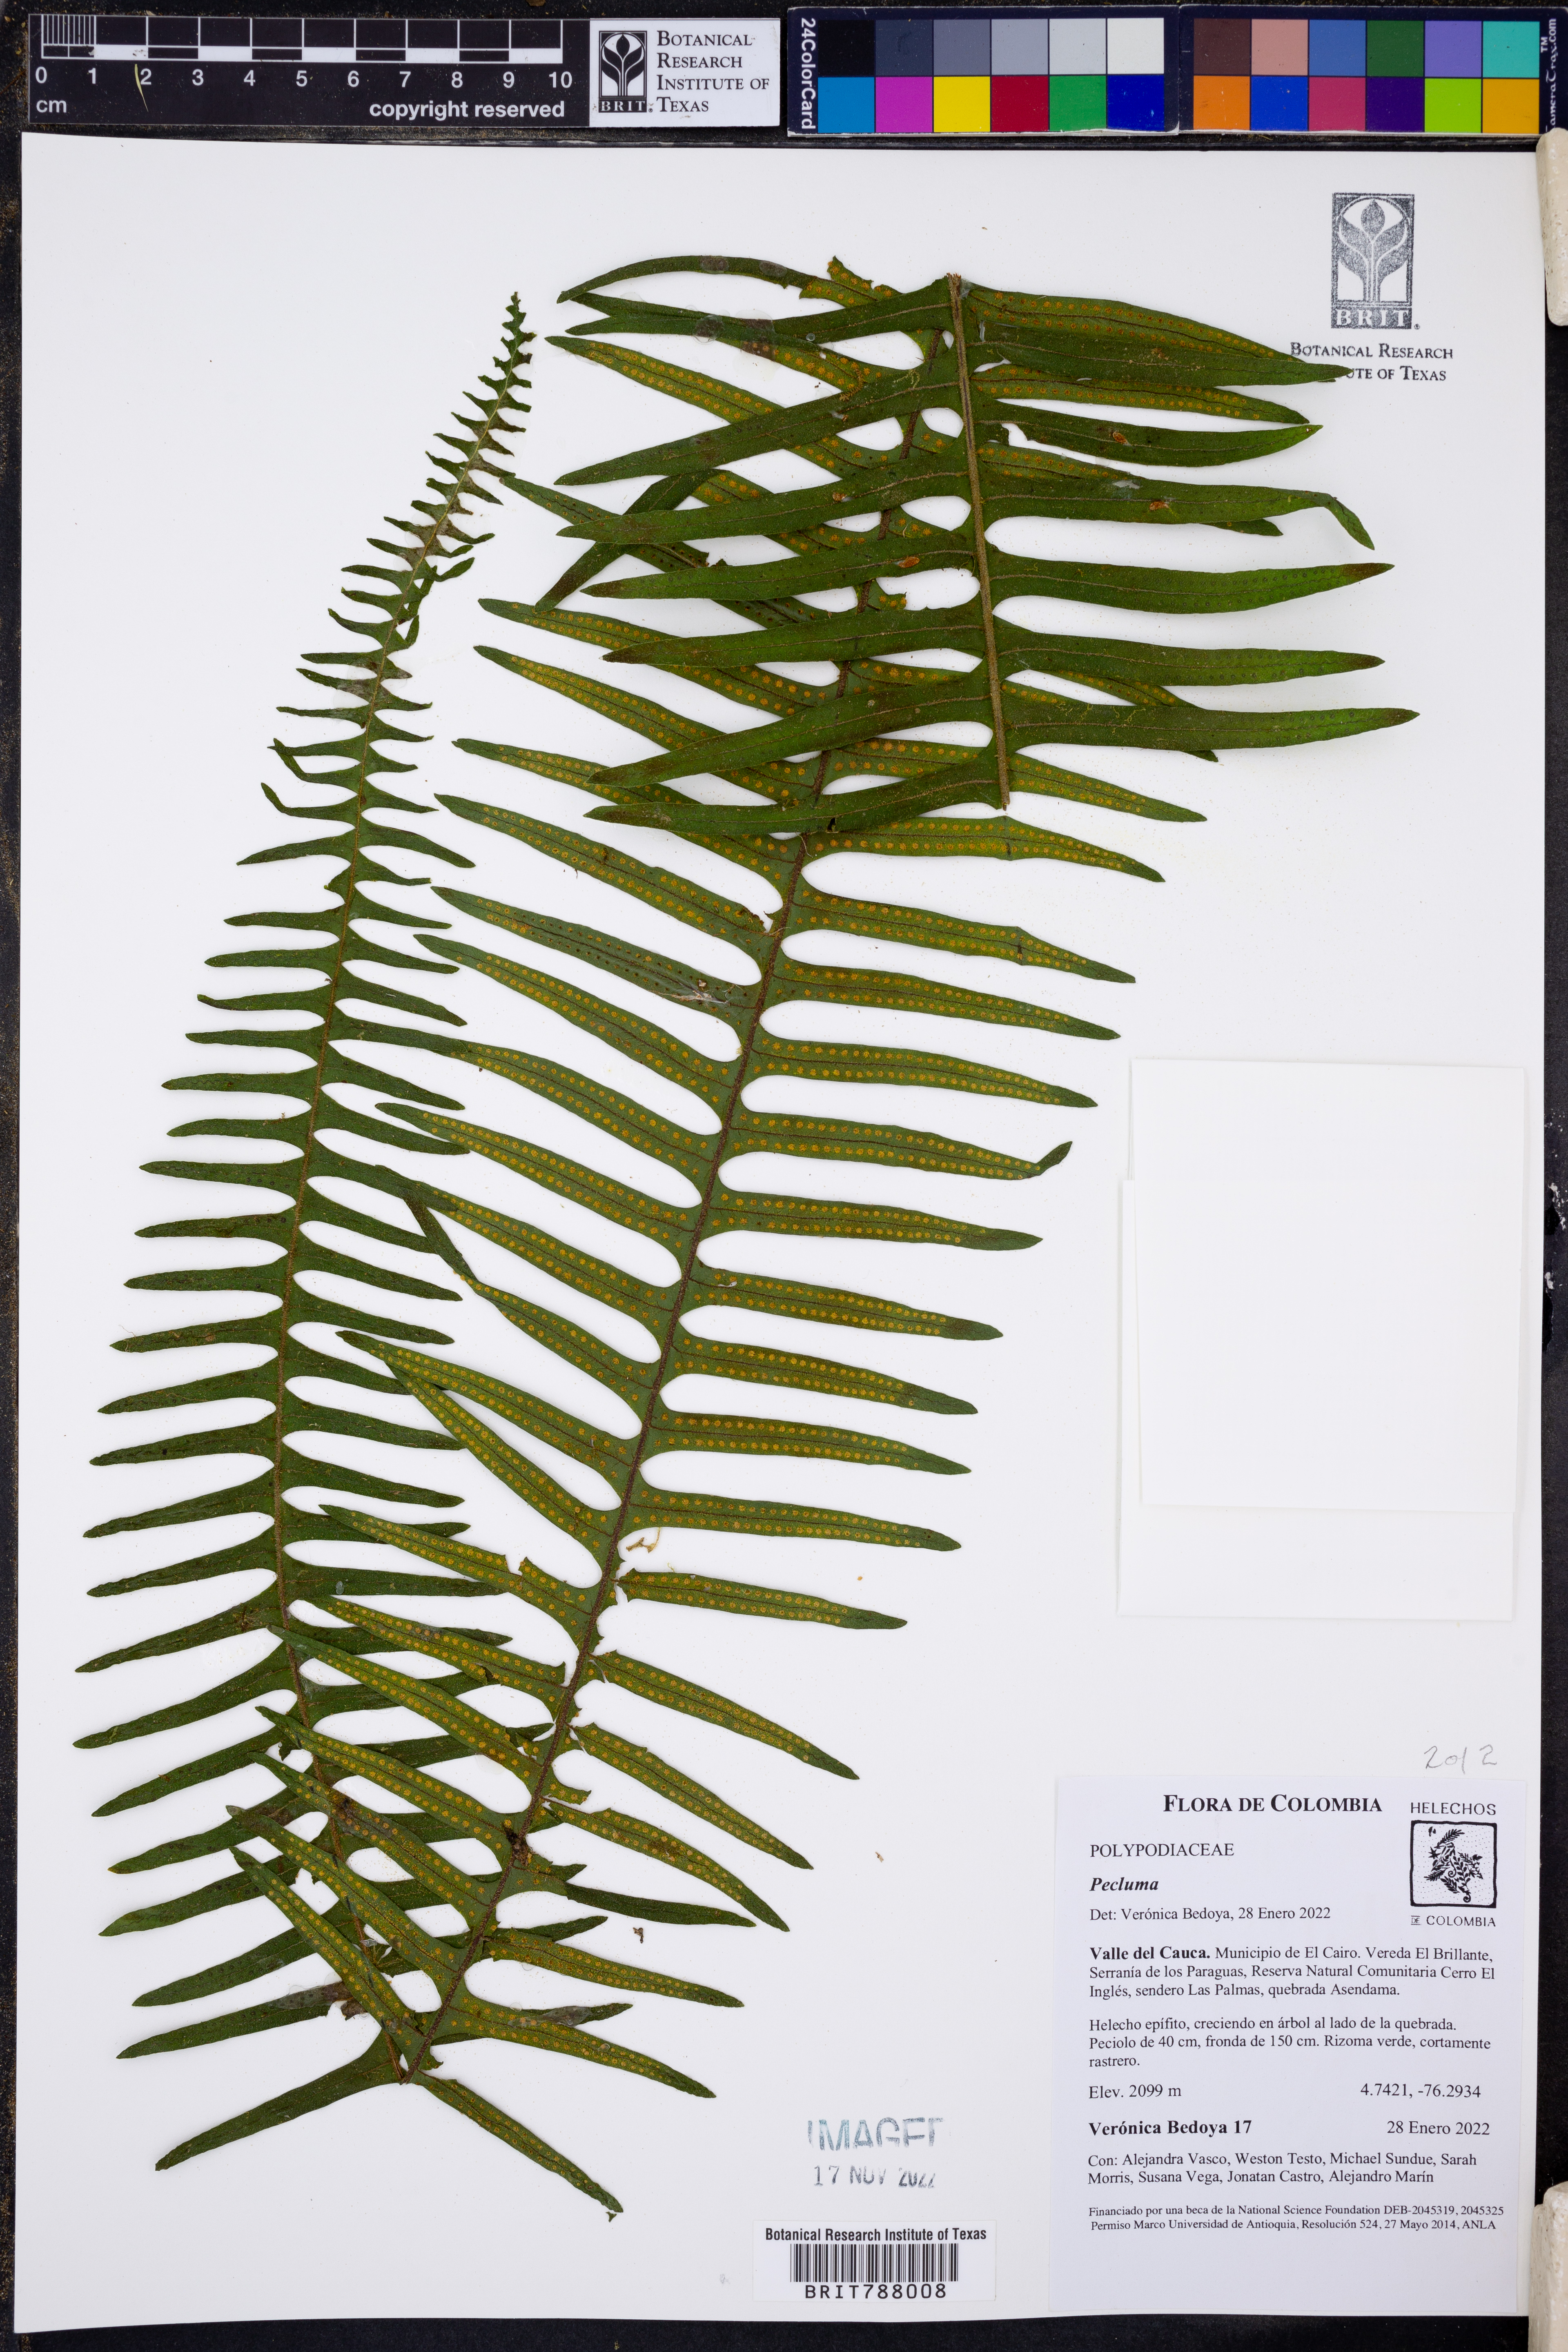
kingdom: Plantae
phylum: Tracheophyta
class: Polypodiopsida
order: Polypodiales
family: Polypodiaceae
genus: Pecluma
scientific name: Pecluma
